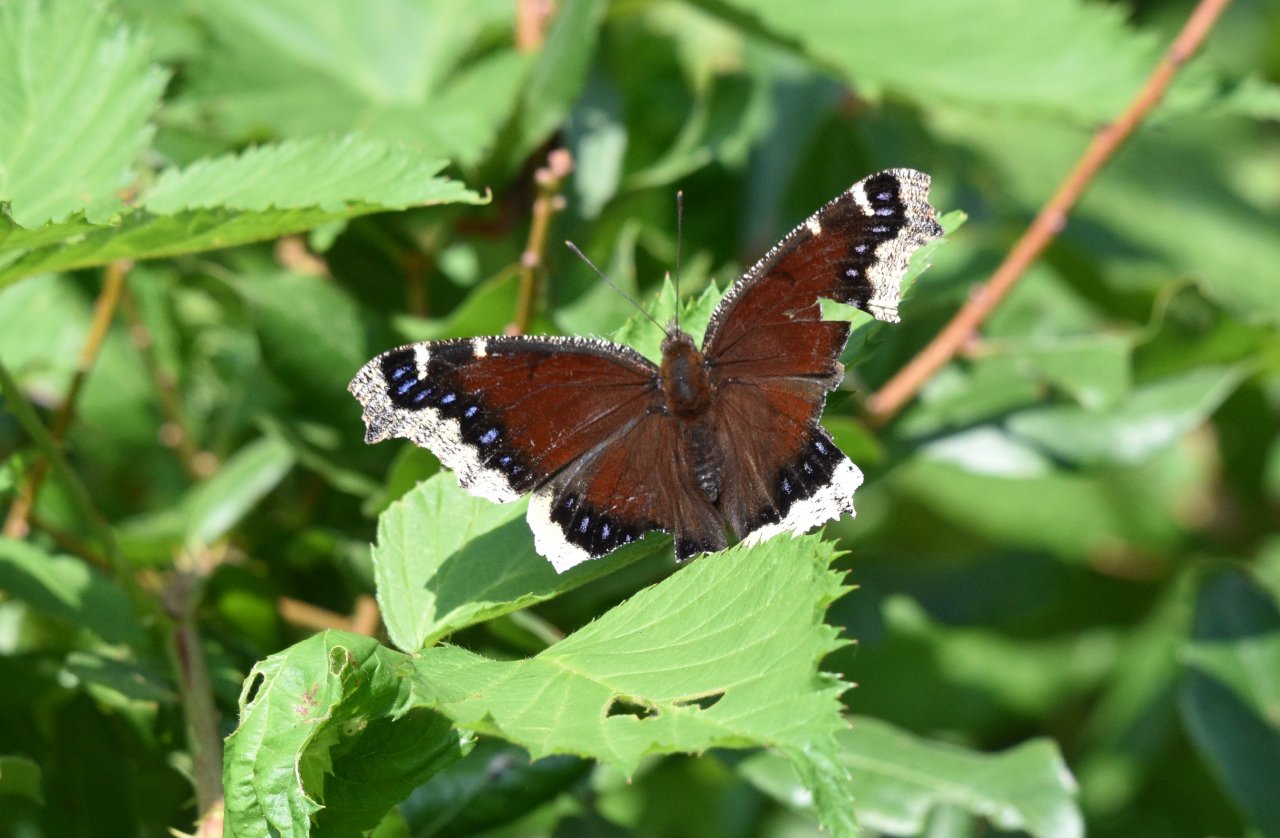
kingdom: Animalia
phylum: Arthropoda
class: Insecta
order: Lepidoptera
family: Nymphalidae
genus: Nymphalis
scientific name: Nymphalis antiopa
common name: Mourning Cloak
